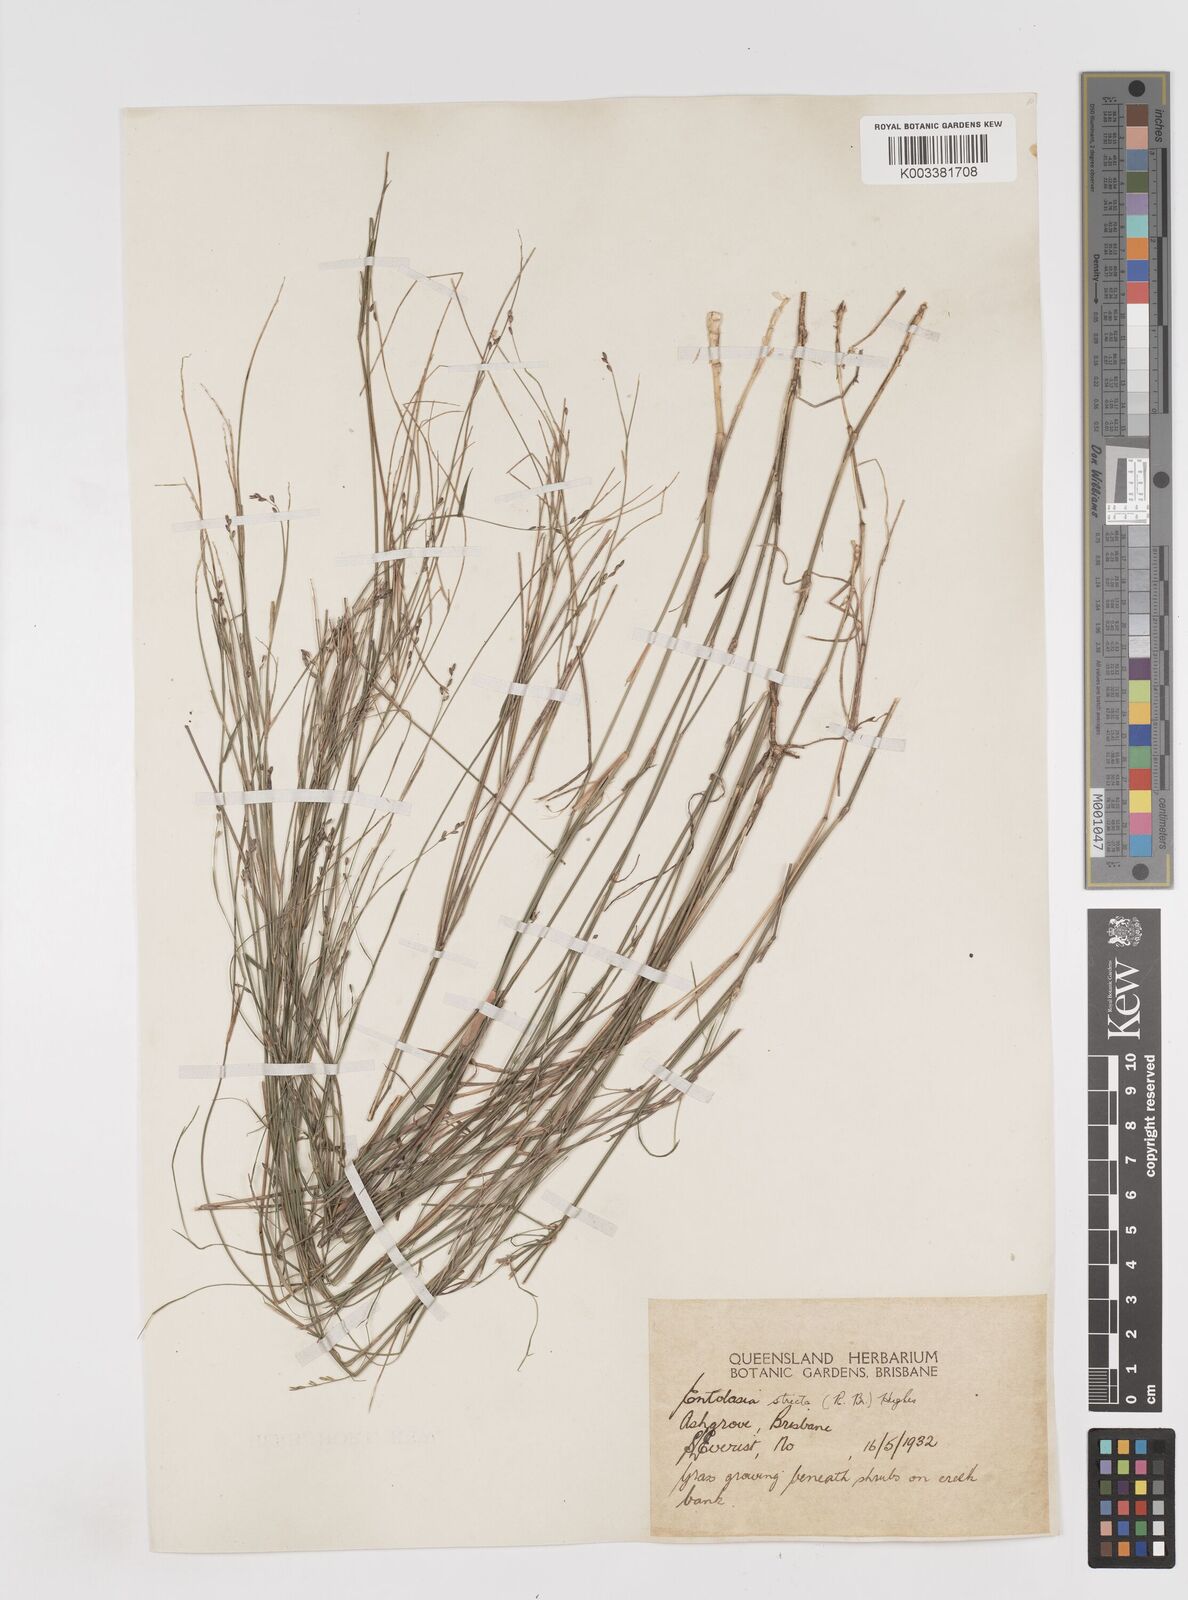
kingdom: Plantae
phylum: Tracheophyta
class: Liliopsida
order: Poales
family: Poaceae
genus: Entolasia
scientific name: Entolasia stricta
